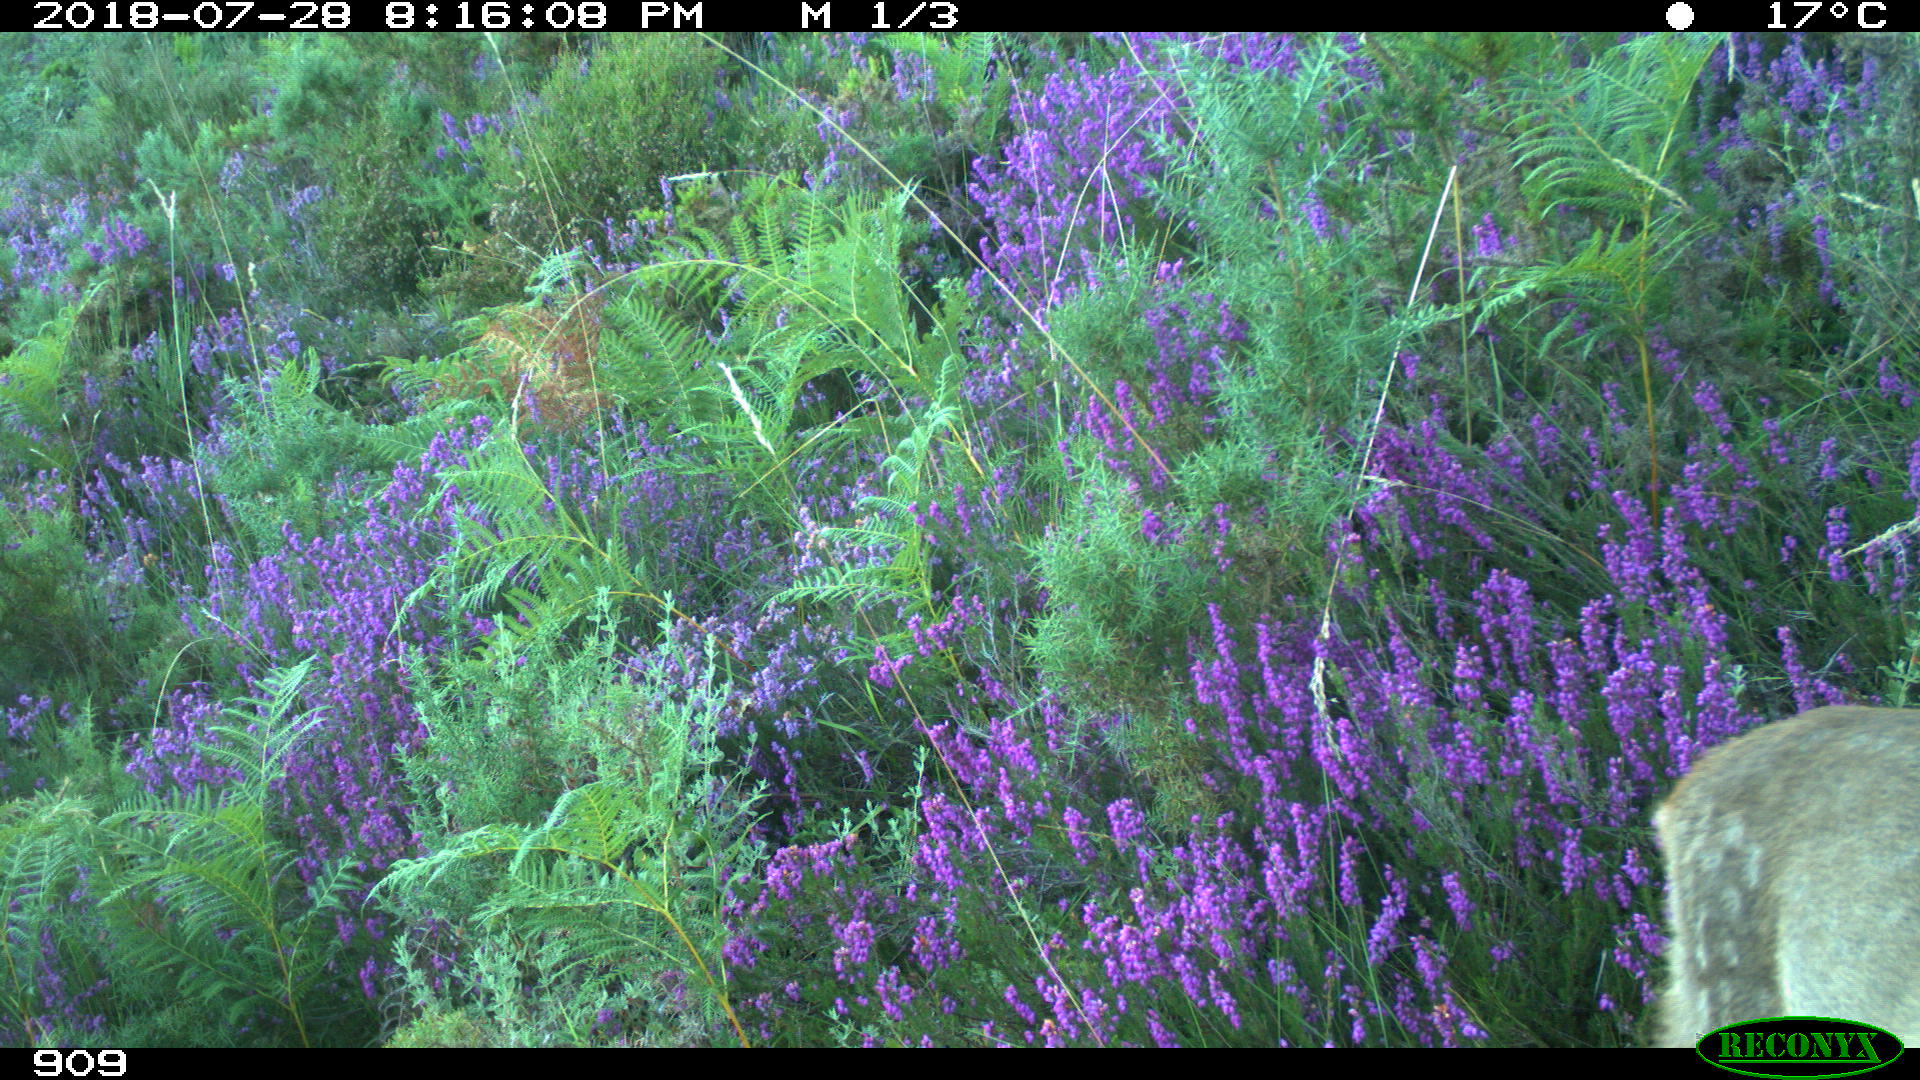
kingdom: Animalia
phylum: Chordata
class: Mammalia
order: Artiodactyla
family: Cervidae
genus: Capreolus
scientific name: Capreolus capreolus
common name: Western roe deer
